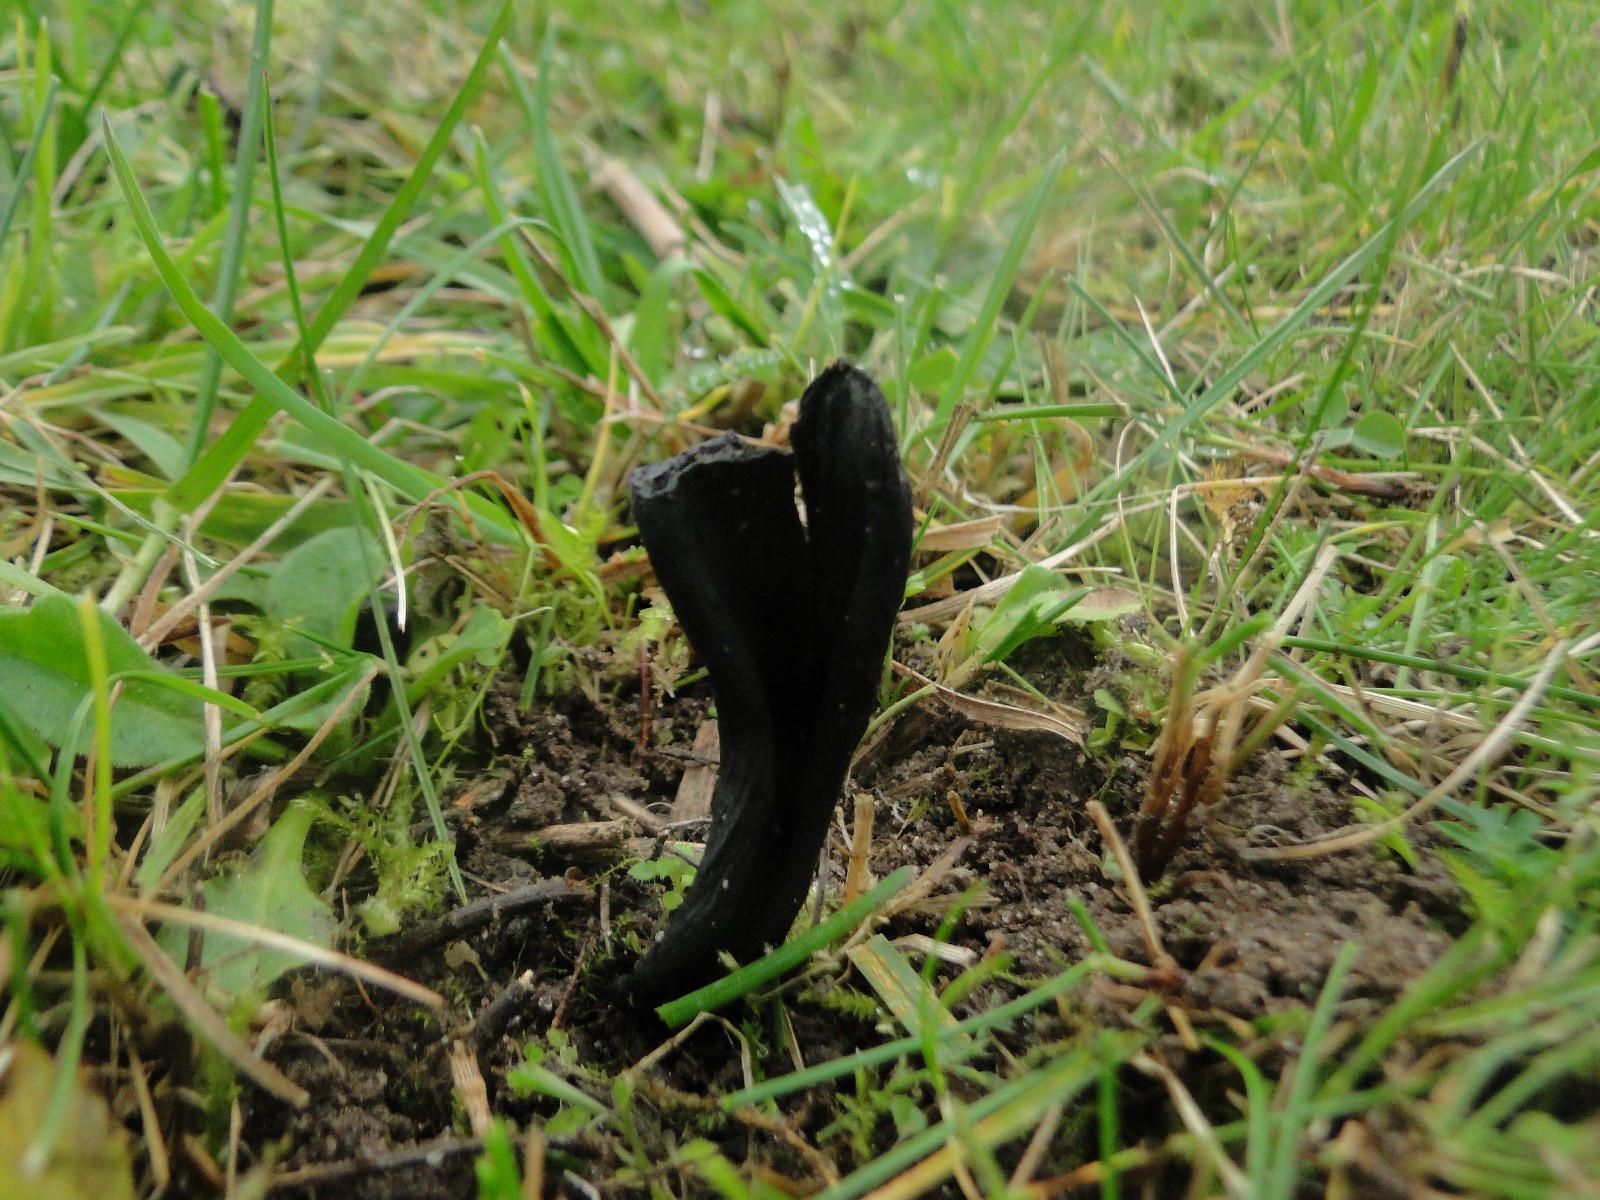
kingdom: Fungi
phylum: Ascomycota
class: Geoglossomycetes
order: Geoglossales
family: Geoglossaceae
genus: Geoglossum
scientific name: Geoglossum umbratile
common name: slank jordtunge
